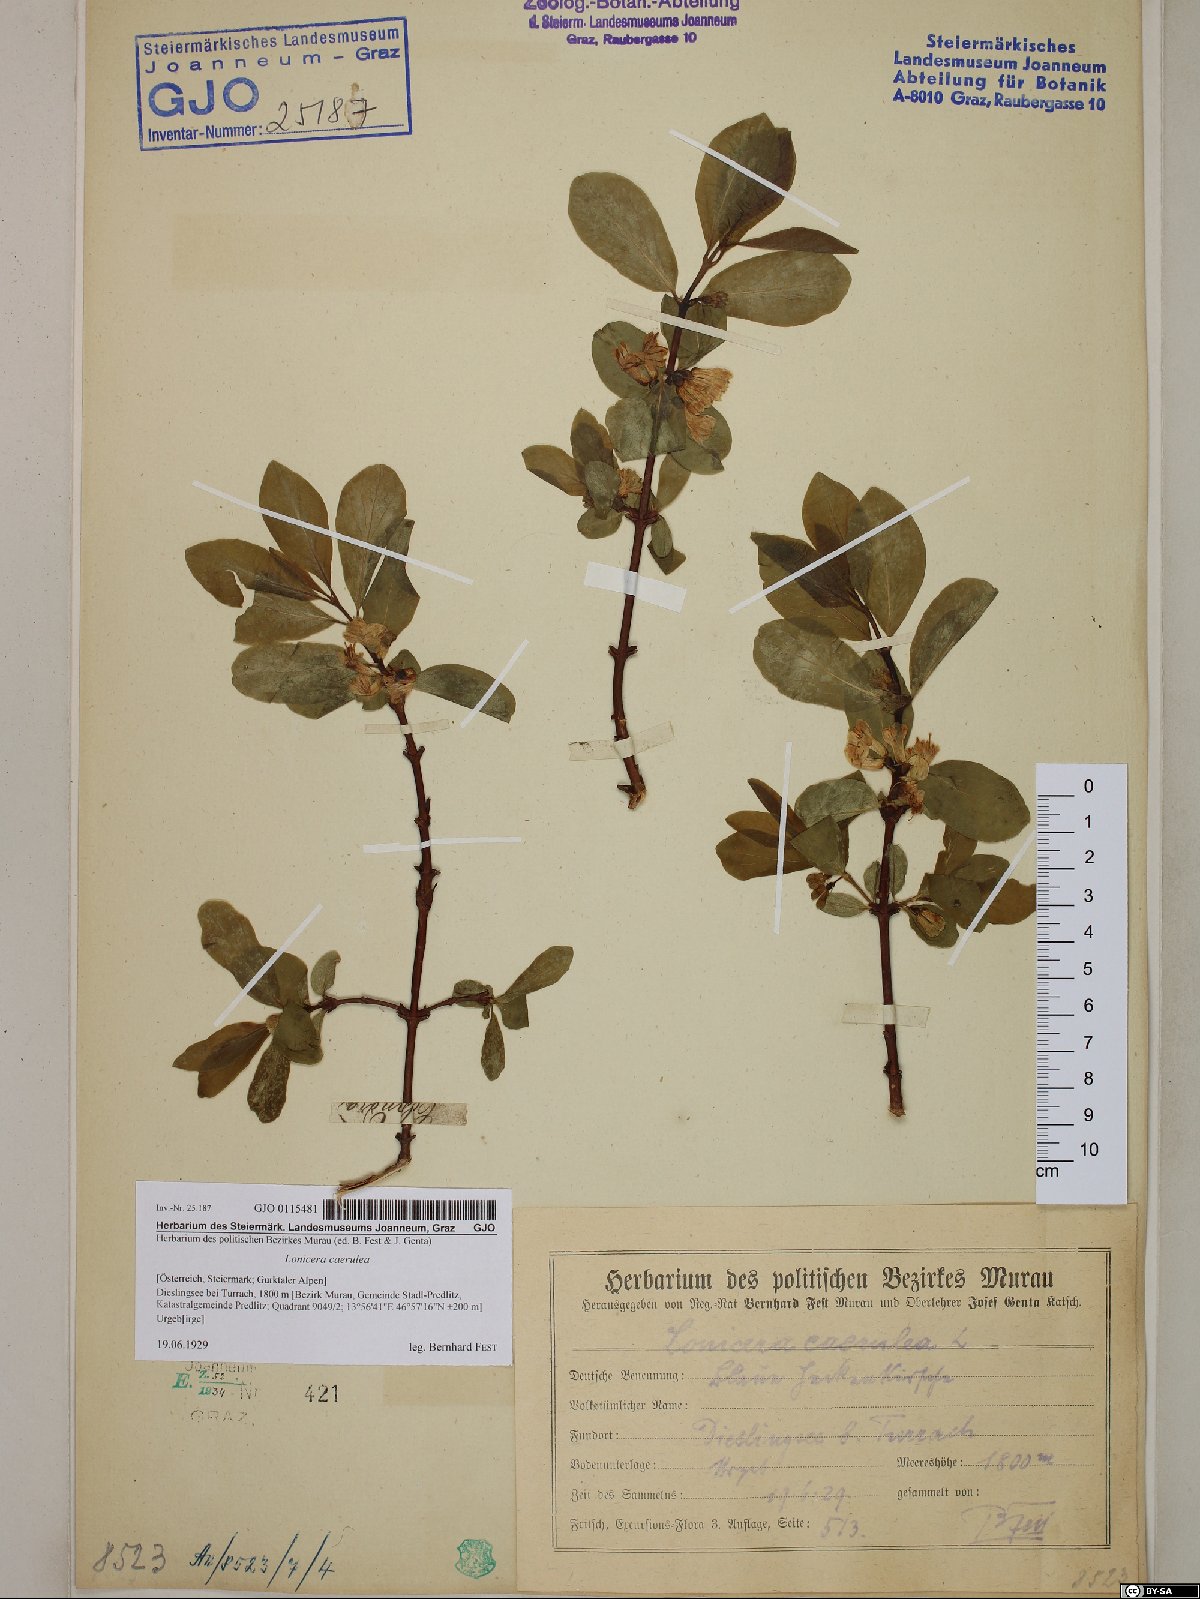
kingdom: Plantae
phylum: Tracheophyta
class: Magnoliopsida
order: Dipsacales
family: Caprifoliaceae
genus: Lonicera
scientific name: Lonicera caerulea
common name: Blue honeysuckle
